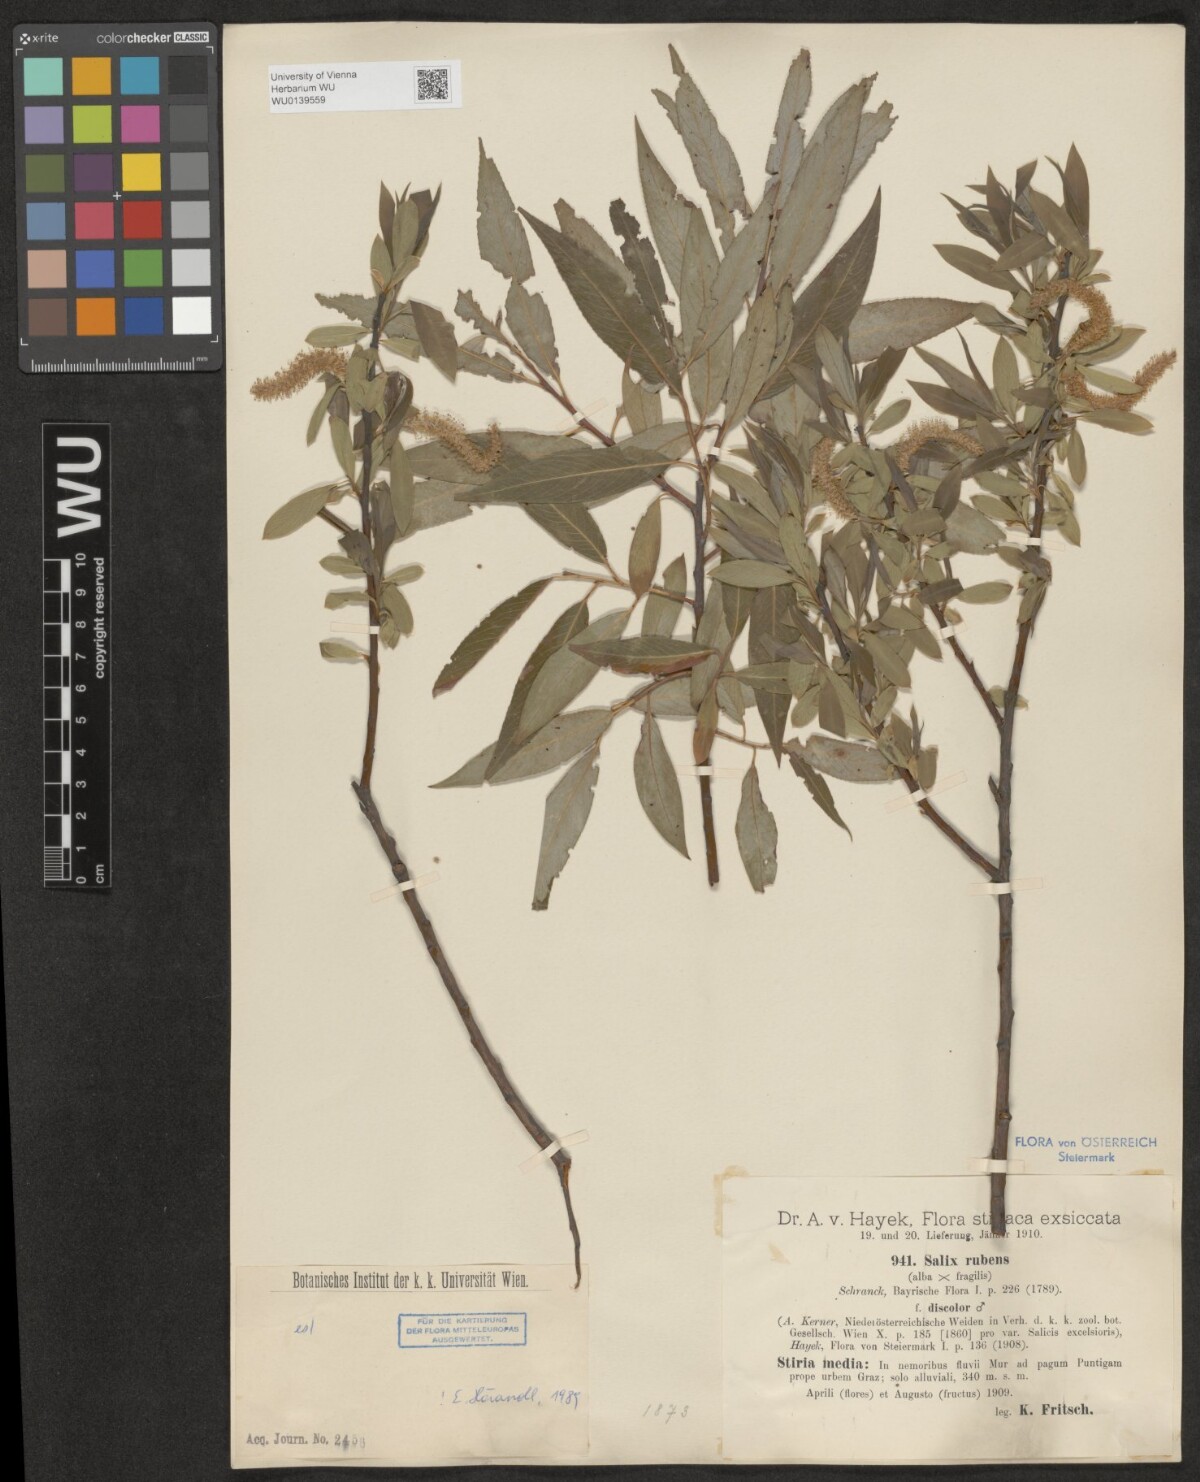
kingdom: Plantae
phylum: Tracheophyta
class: Magnoliopsida
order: Malpighiales
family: Salicaceae
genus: Salix
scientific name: Salix rubens
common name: Hybrid crack willow
